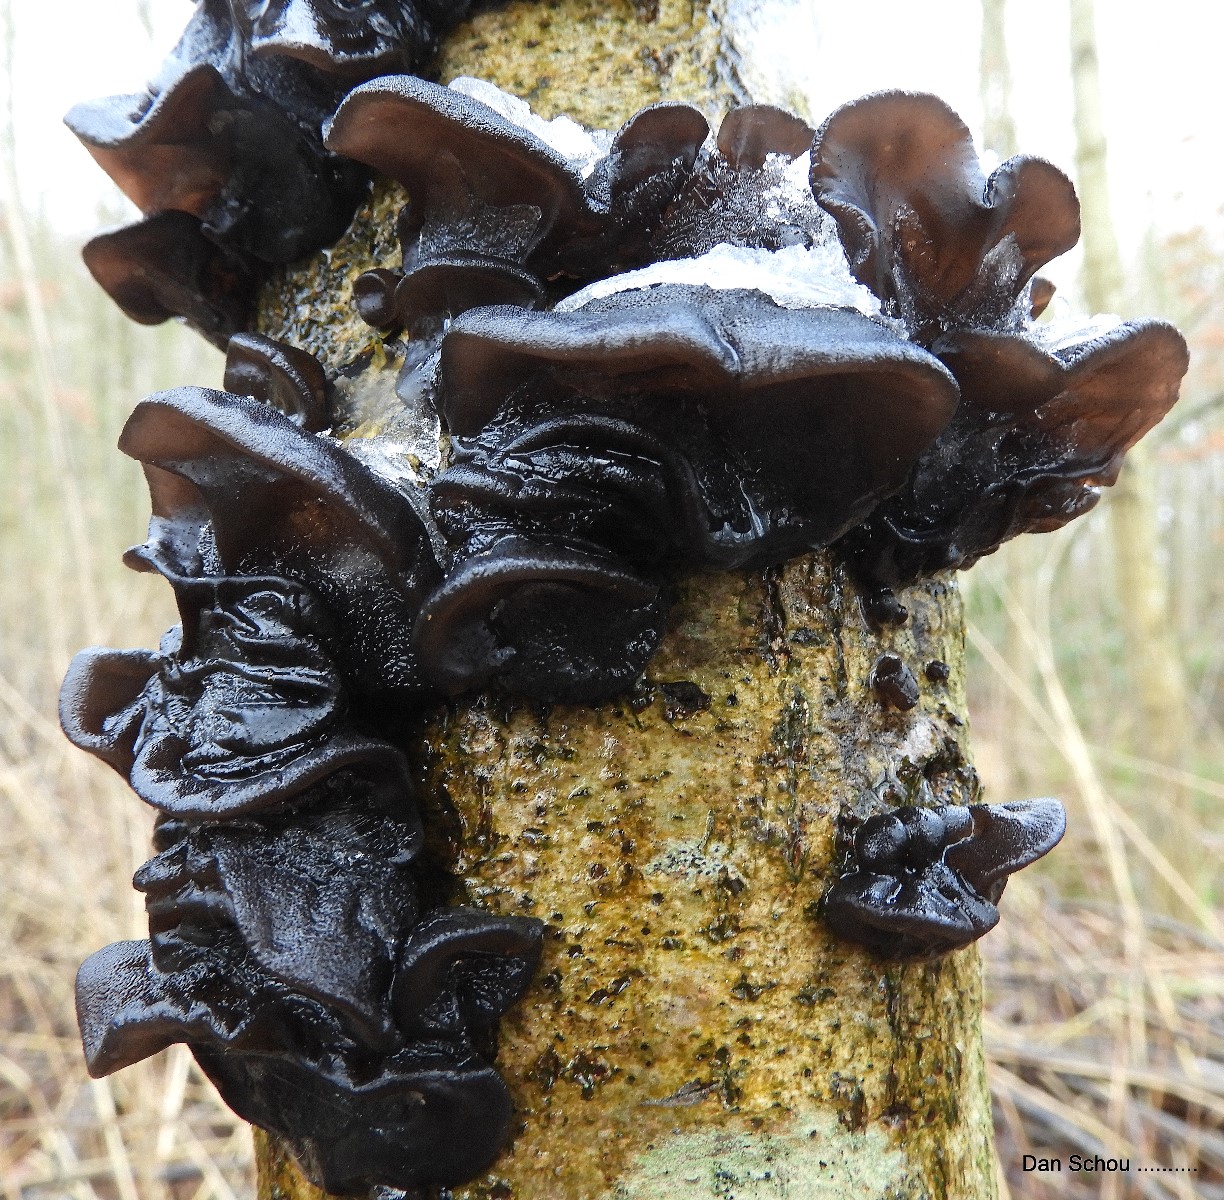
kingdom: Fungi
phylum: Basidiomycota
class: Agaricomycetes
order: Auriculariales
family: Auriculariaceae
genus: Exidia
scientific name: Exidia glandulosa
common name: ege-bævretop
